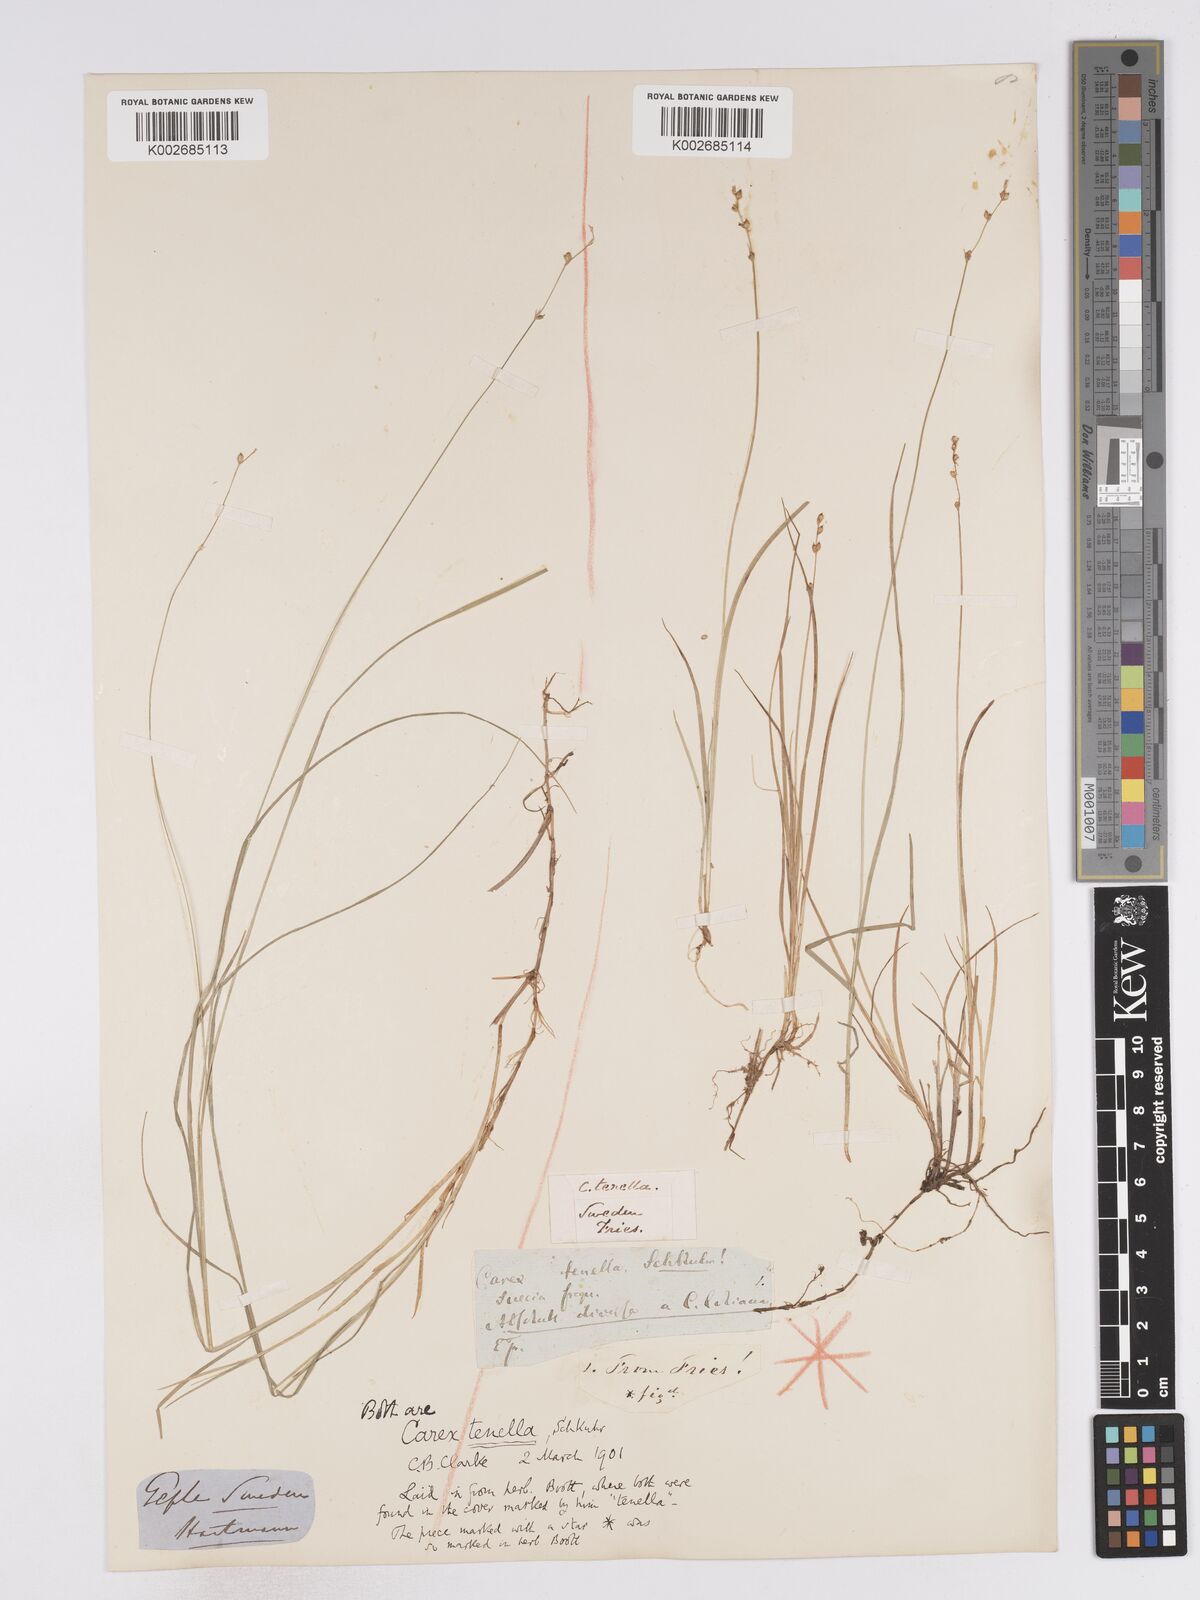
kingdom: Plantae
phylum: Tracheophyta
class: Liliopsida
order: Poales
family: Cyperaceae
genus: Carex
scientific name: Carex disperma
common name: Short-leaved sedge
